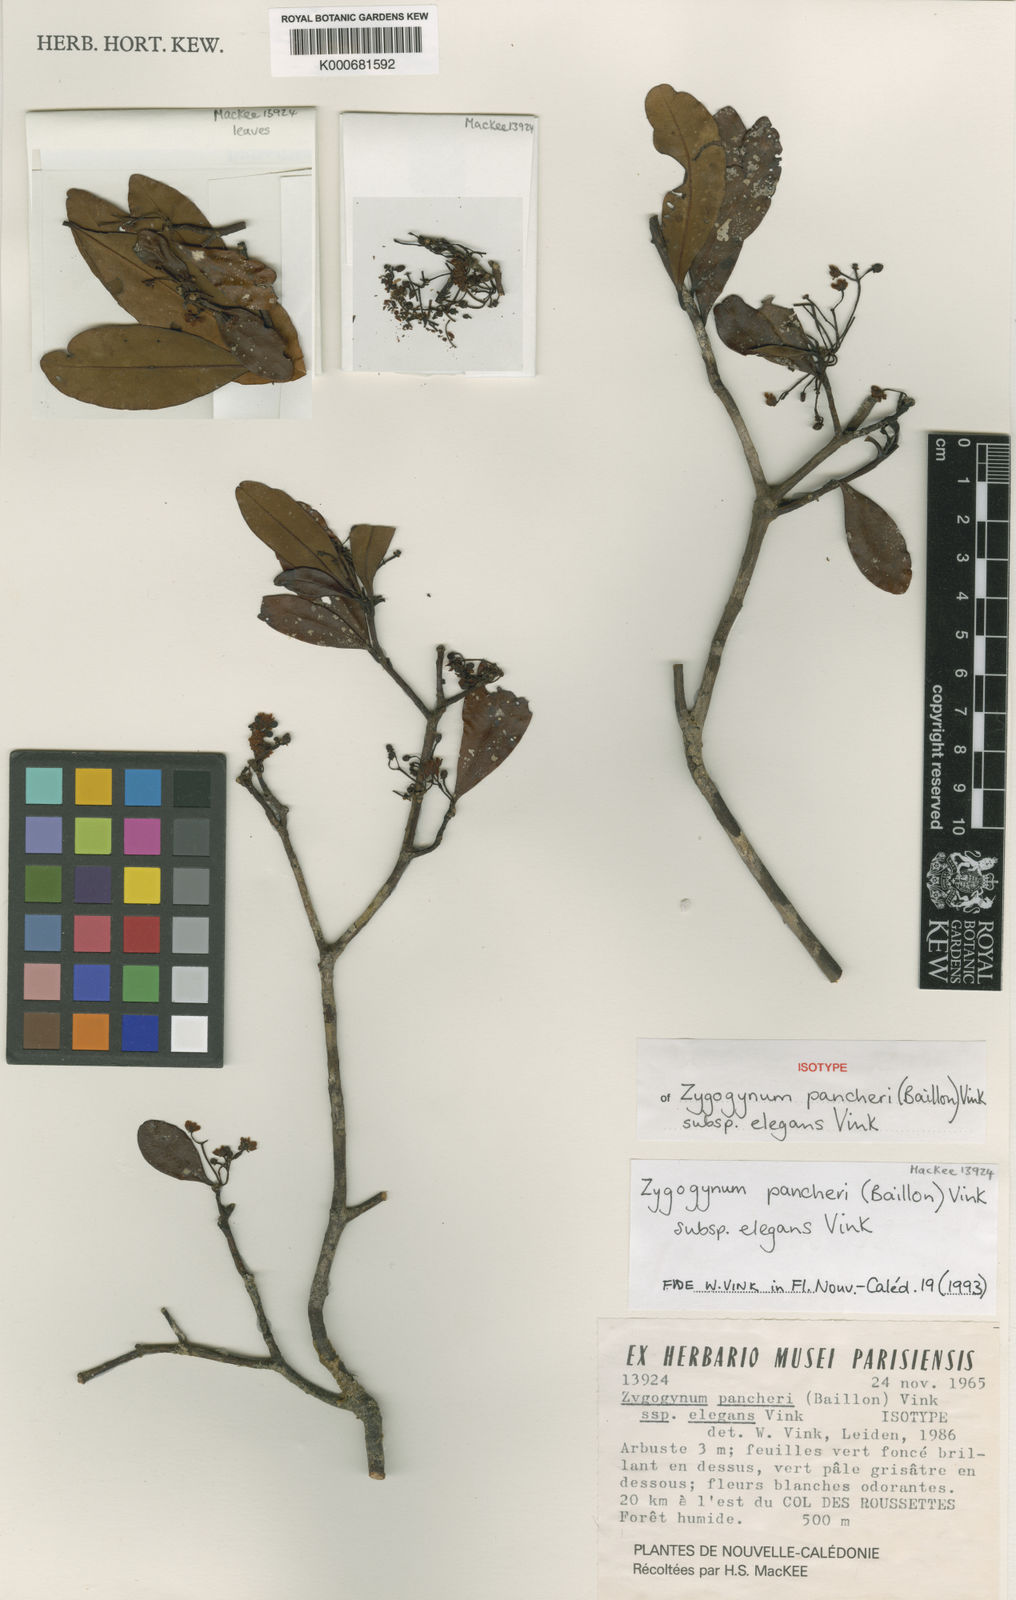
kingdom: Plantae
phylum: Tracheophyta
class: Magnoliopsida
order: Canellales
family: Winteraceae
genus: Zygogynum
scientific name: Zygogynum pancheri
